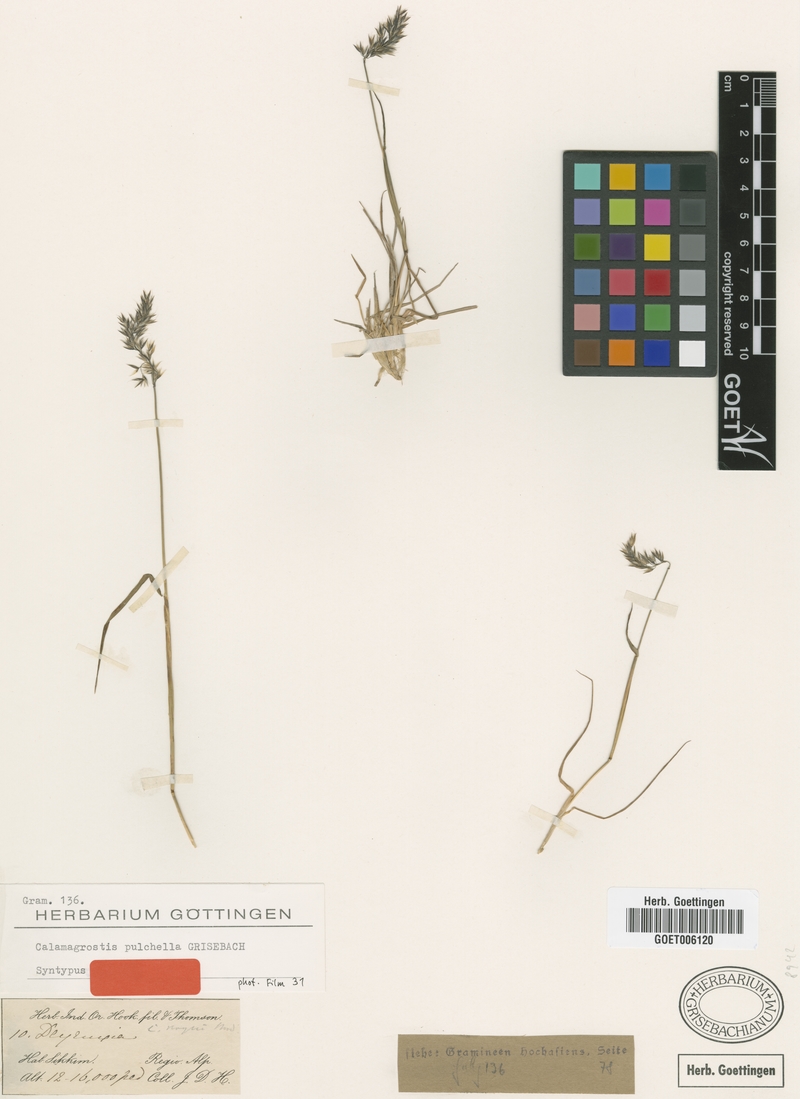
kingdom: Plantae
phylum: Tracheophyta
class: Liliopsida
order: Poales
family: Poaceae
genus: Calamagrostis
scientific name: Calamagrostis lahulensis
